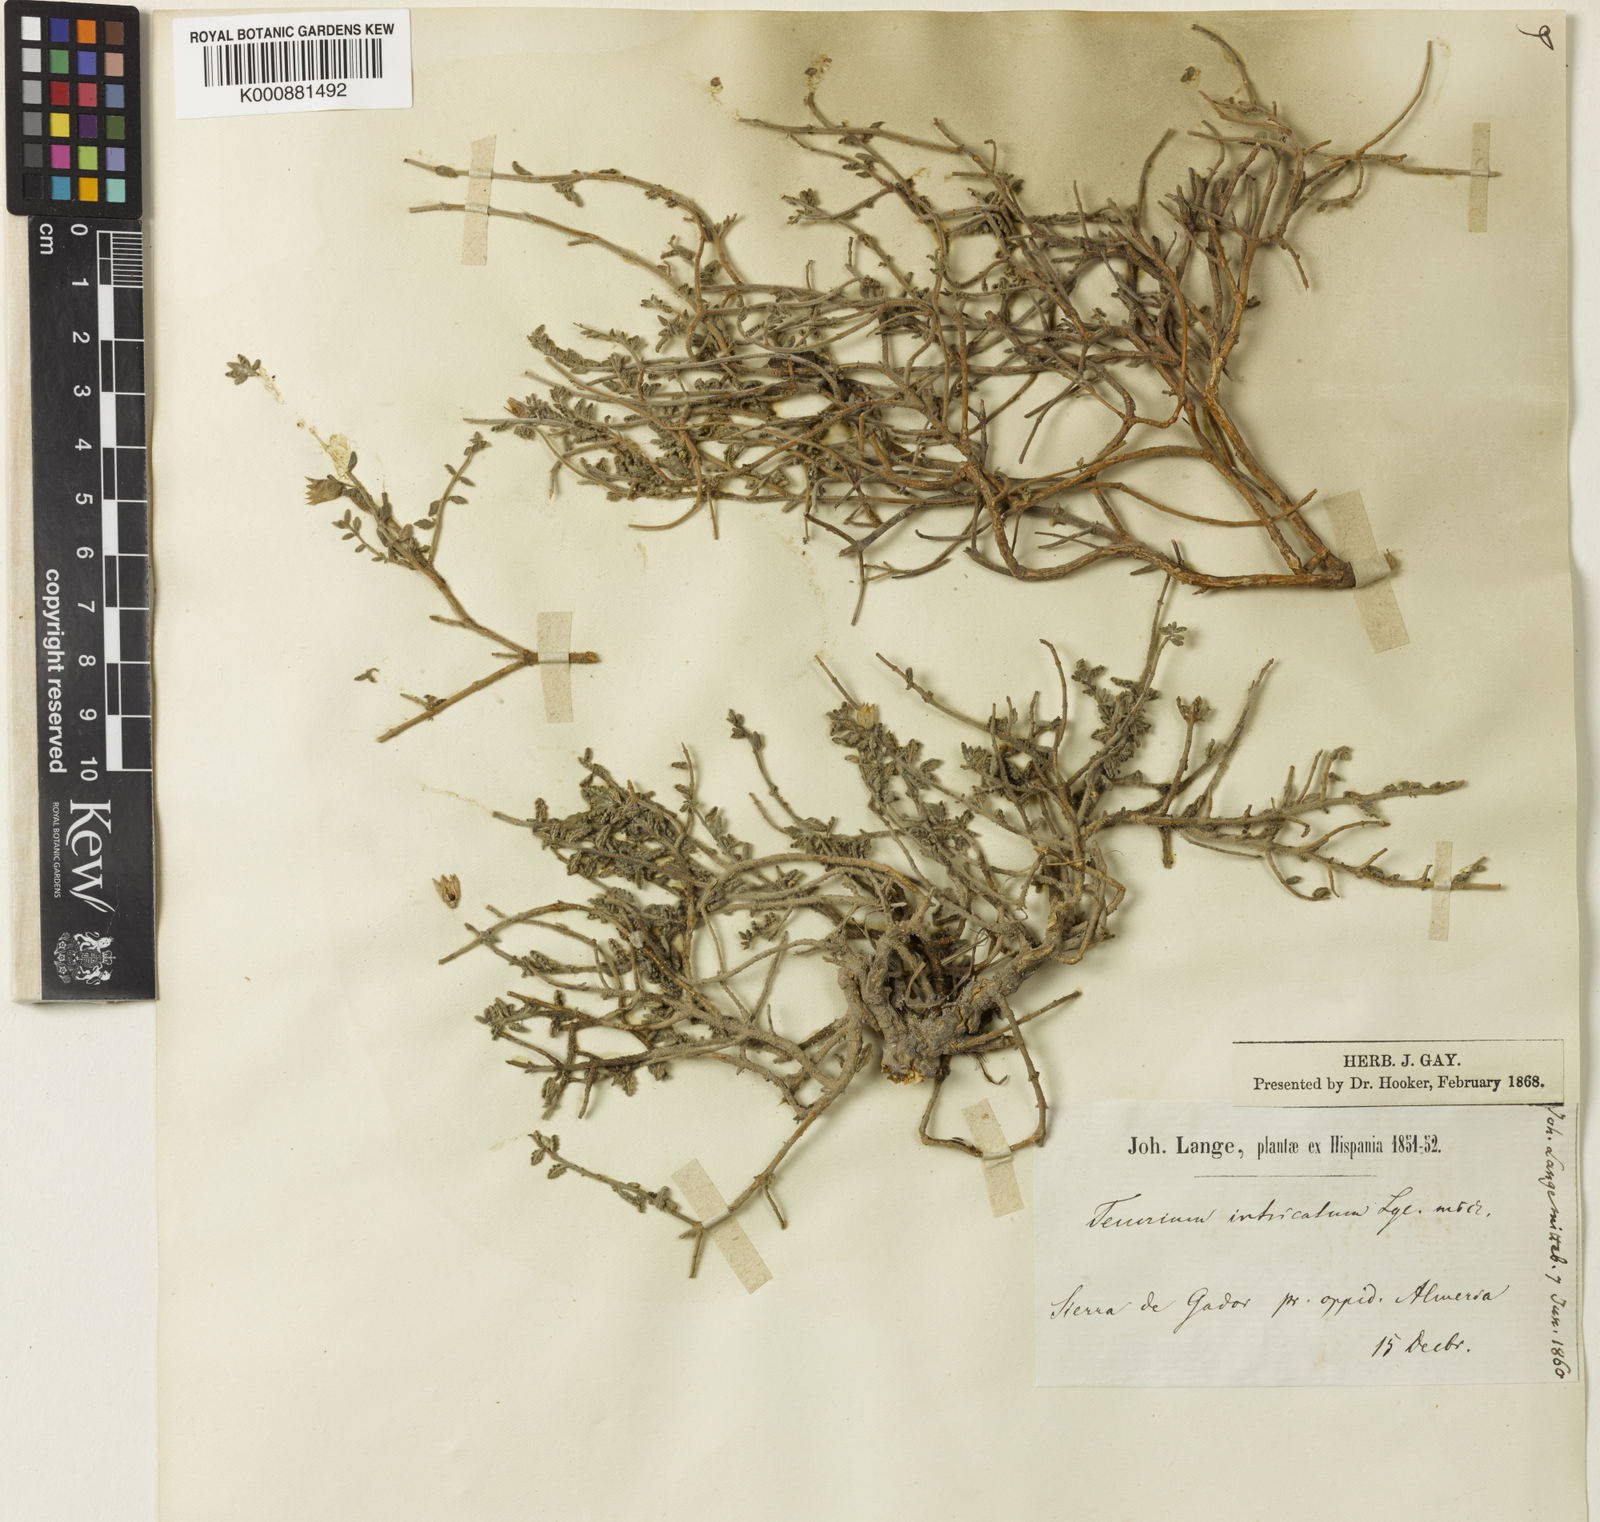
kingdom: Plantae
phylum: Tracheophyta
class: Magnoliopsida
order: Lamiales
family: Lamiaceae
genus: Teucrium
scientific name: Teucrium intricatum
